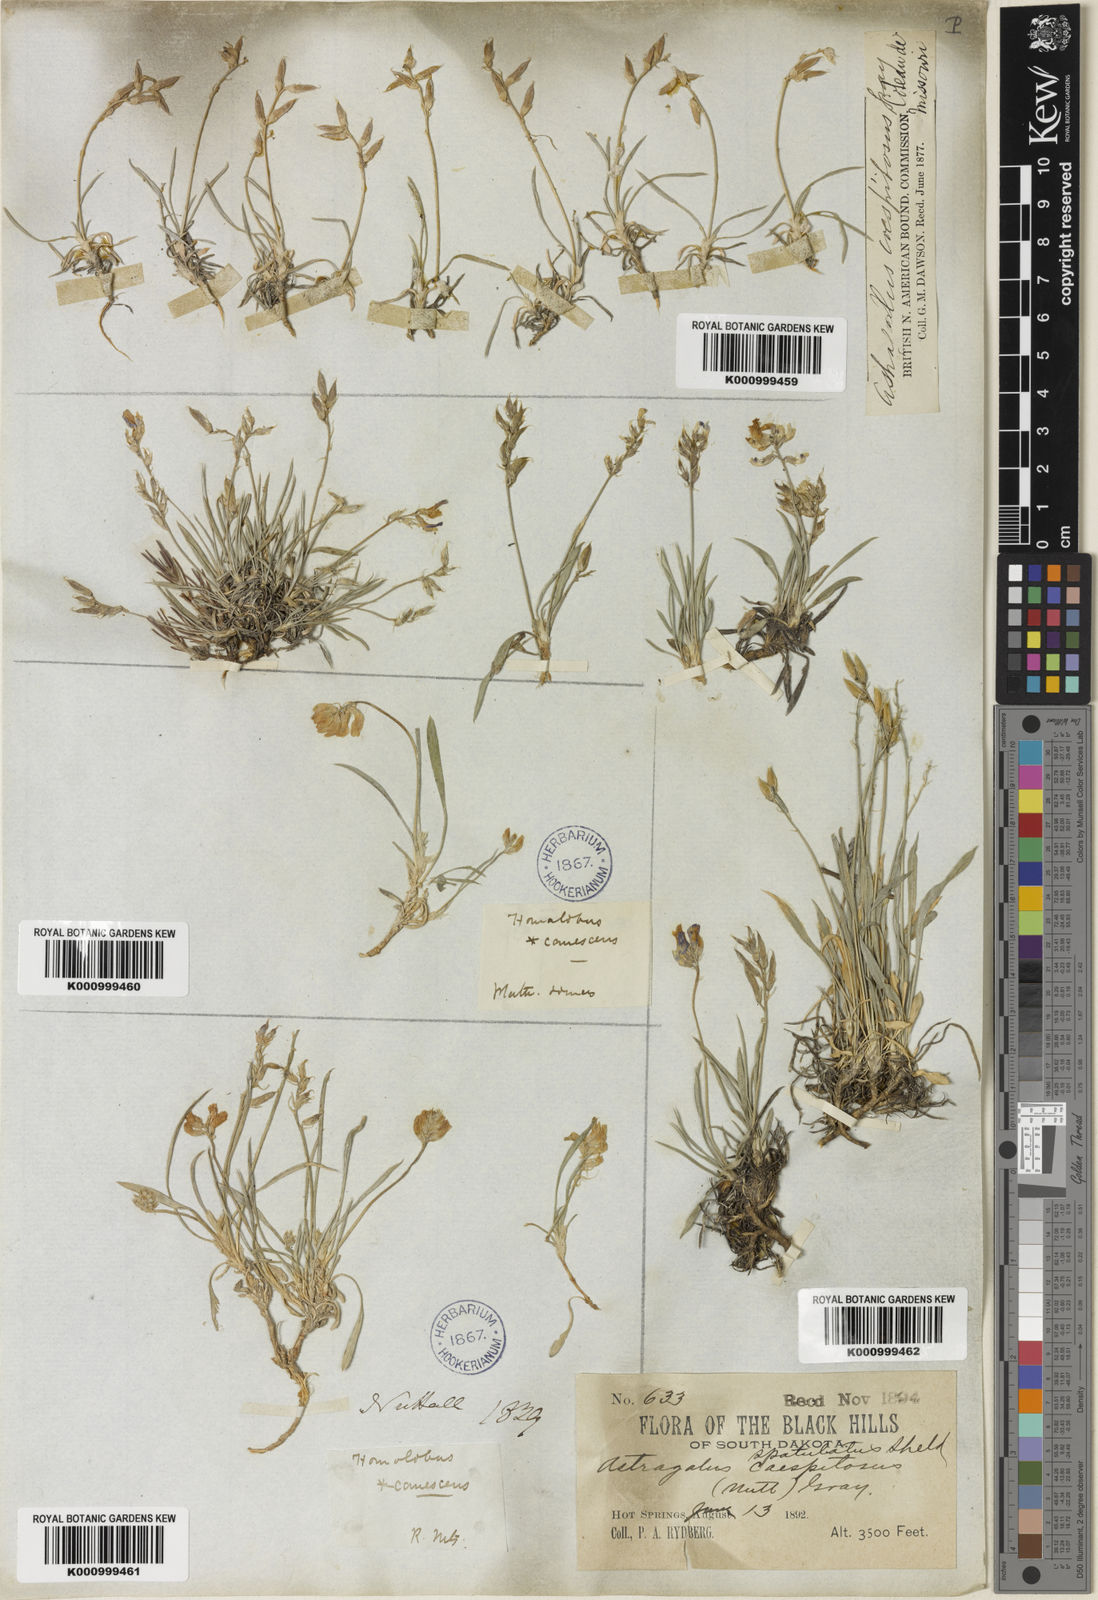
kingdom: Plantae
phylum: Tracheophyta
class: Magnoliopsida
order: Fabales
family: Fabaceae
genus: Oxytropis
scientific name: Oxytropis caespitosa
